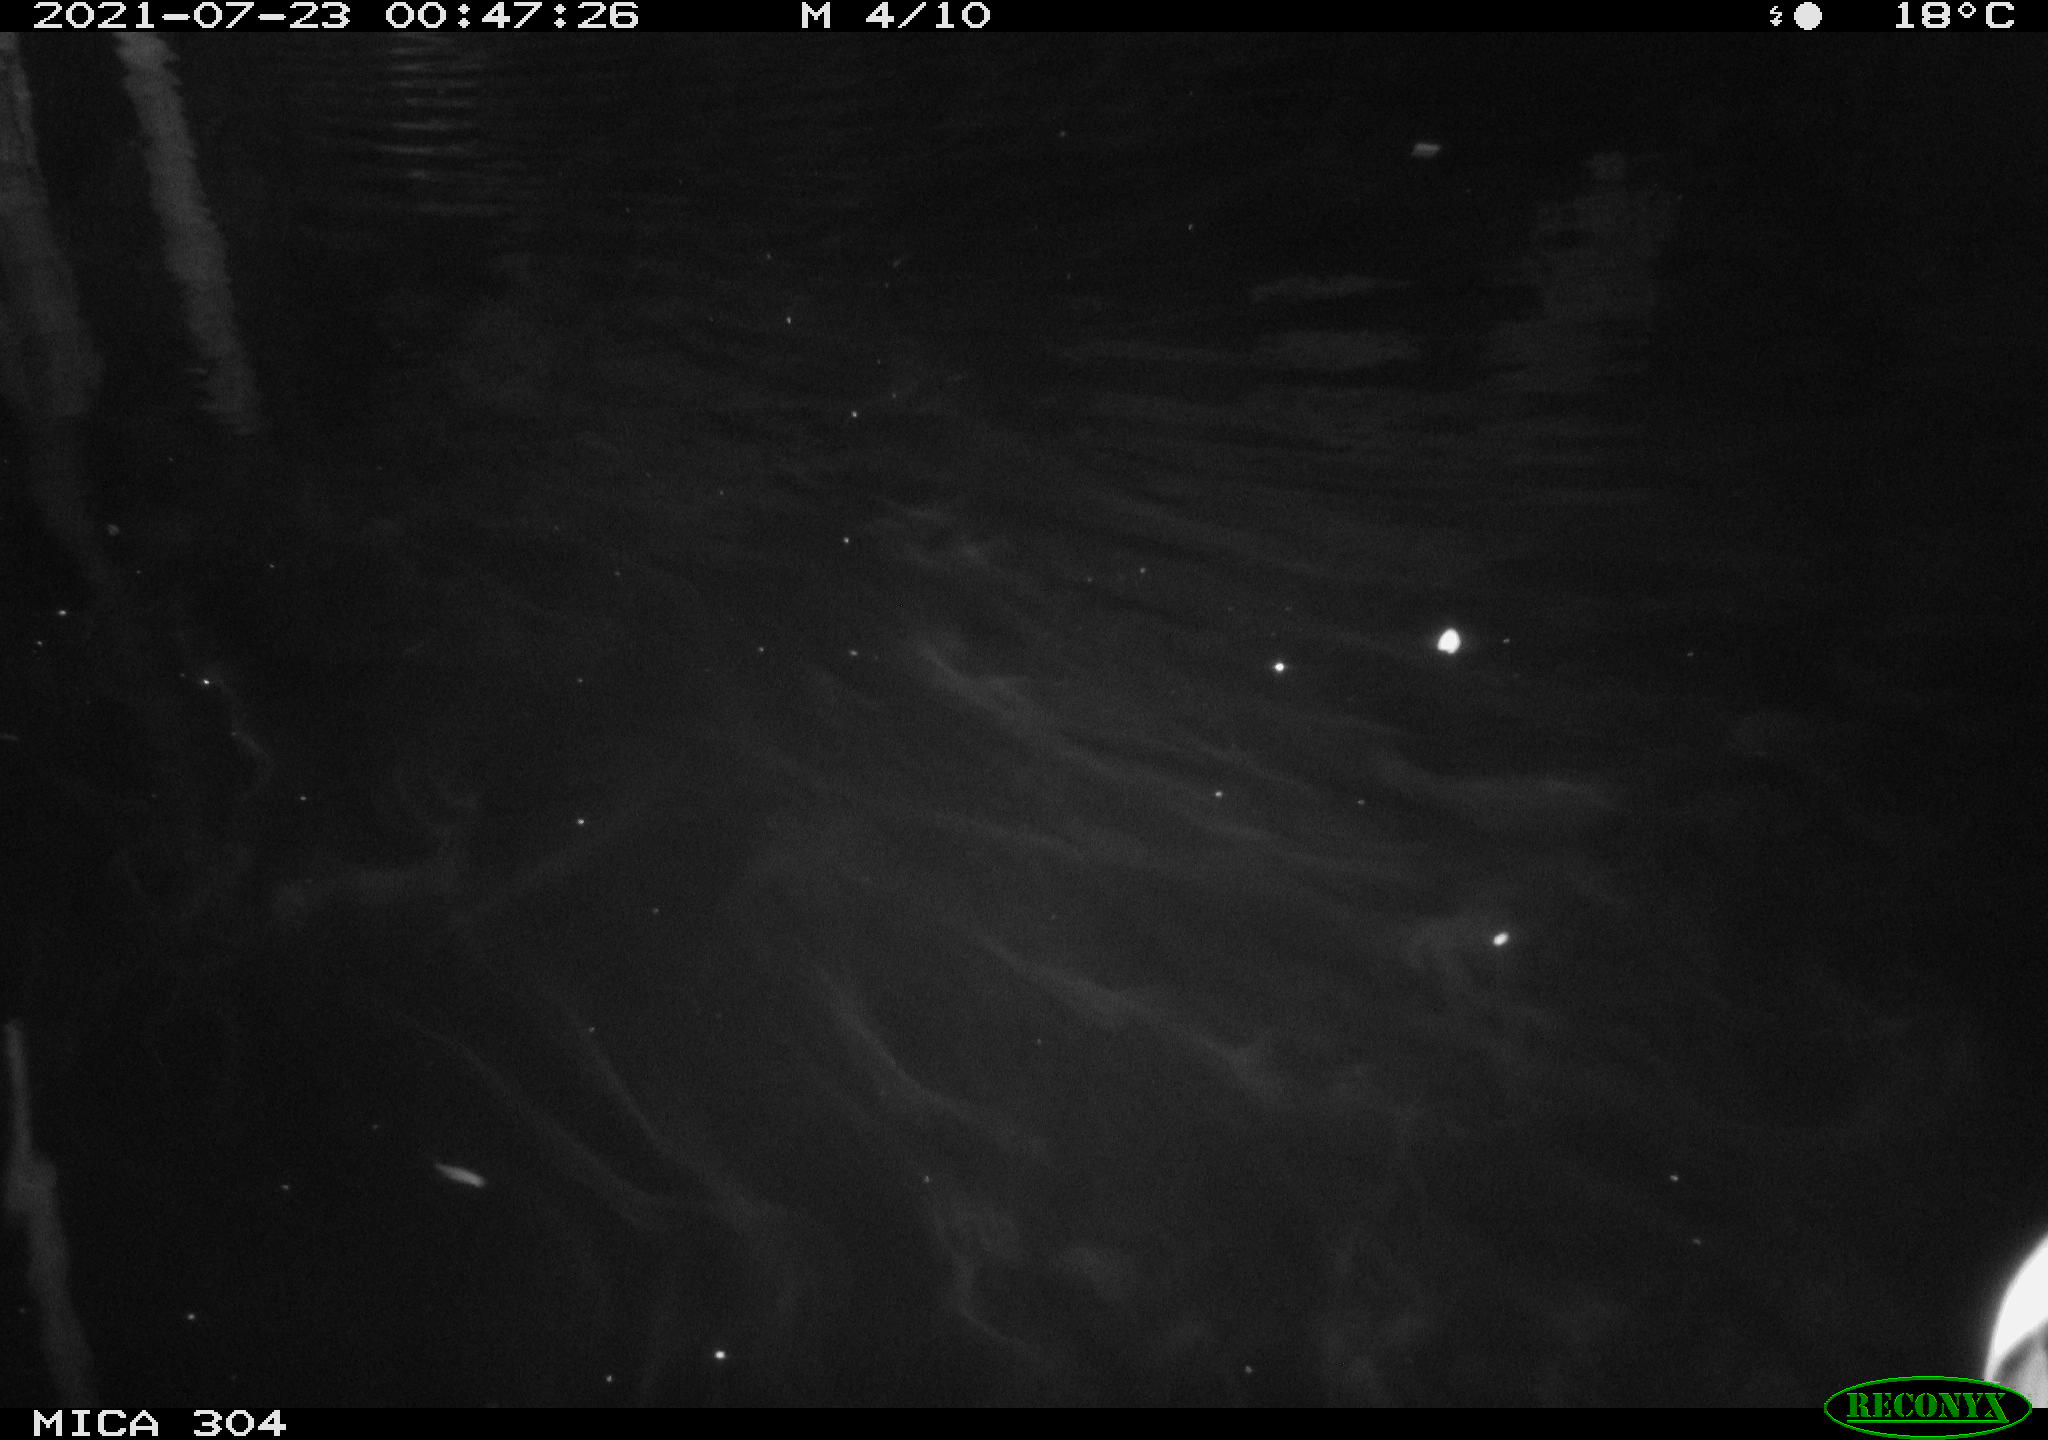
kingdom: Animalia
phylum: Chordata
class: Aves
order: Anseriformes
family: Anatidae
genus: Anas
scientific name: Anas platyrhynchos
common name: Mallard
